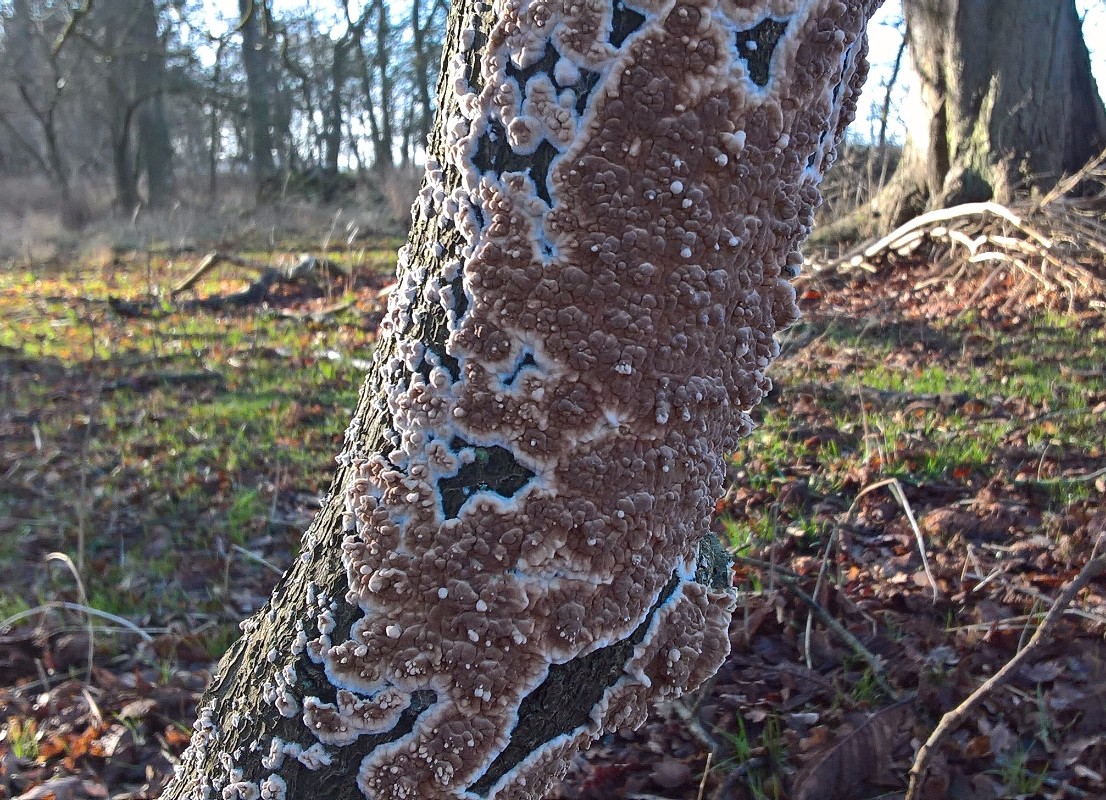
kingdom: Fungi
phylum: Basidiomycota
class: Agaricomycetes
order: Agaricales
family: Physalacriaceae
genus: Cylindrobasidium
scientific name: Cylindrobasidium evolvens
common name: sprækkehinde
